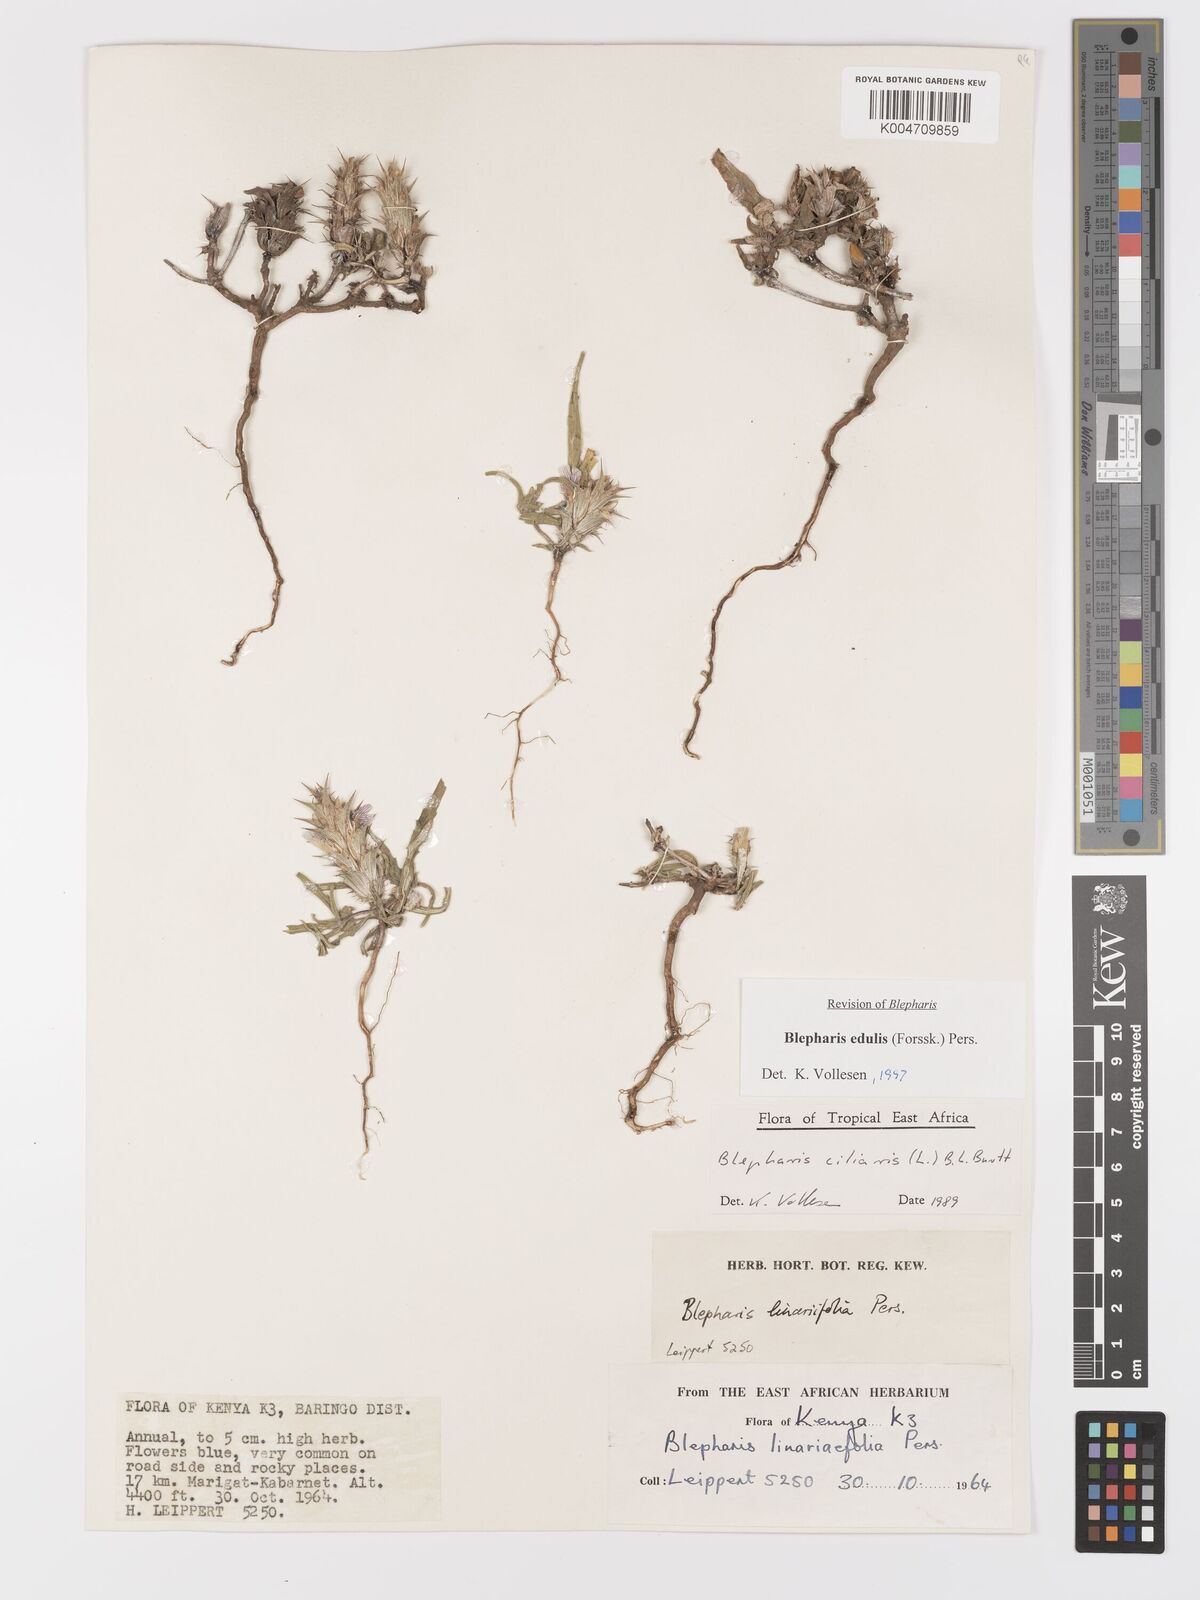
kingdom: Plantae
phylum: Tracheophyta
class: Magnoliopsida
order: Lamiales
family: Acanthaceae
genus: Blepharis
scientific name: Blepharis edulis
